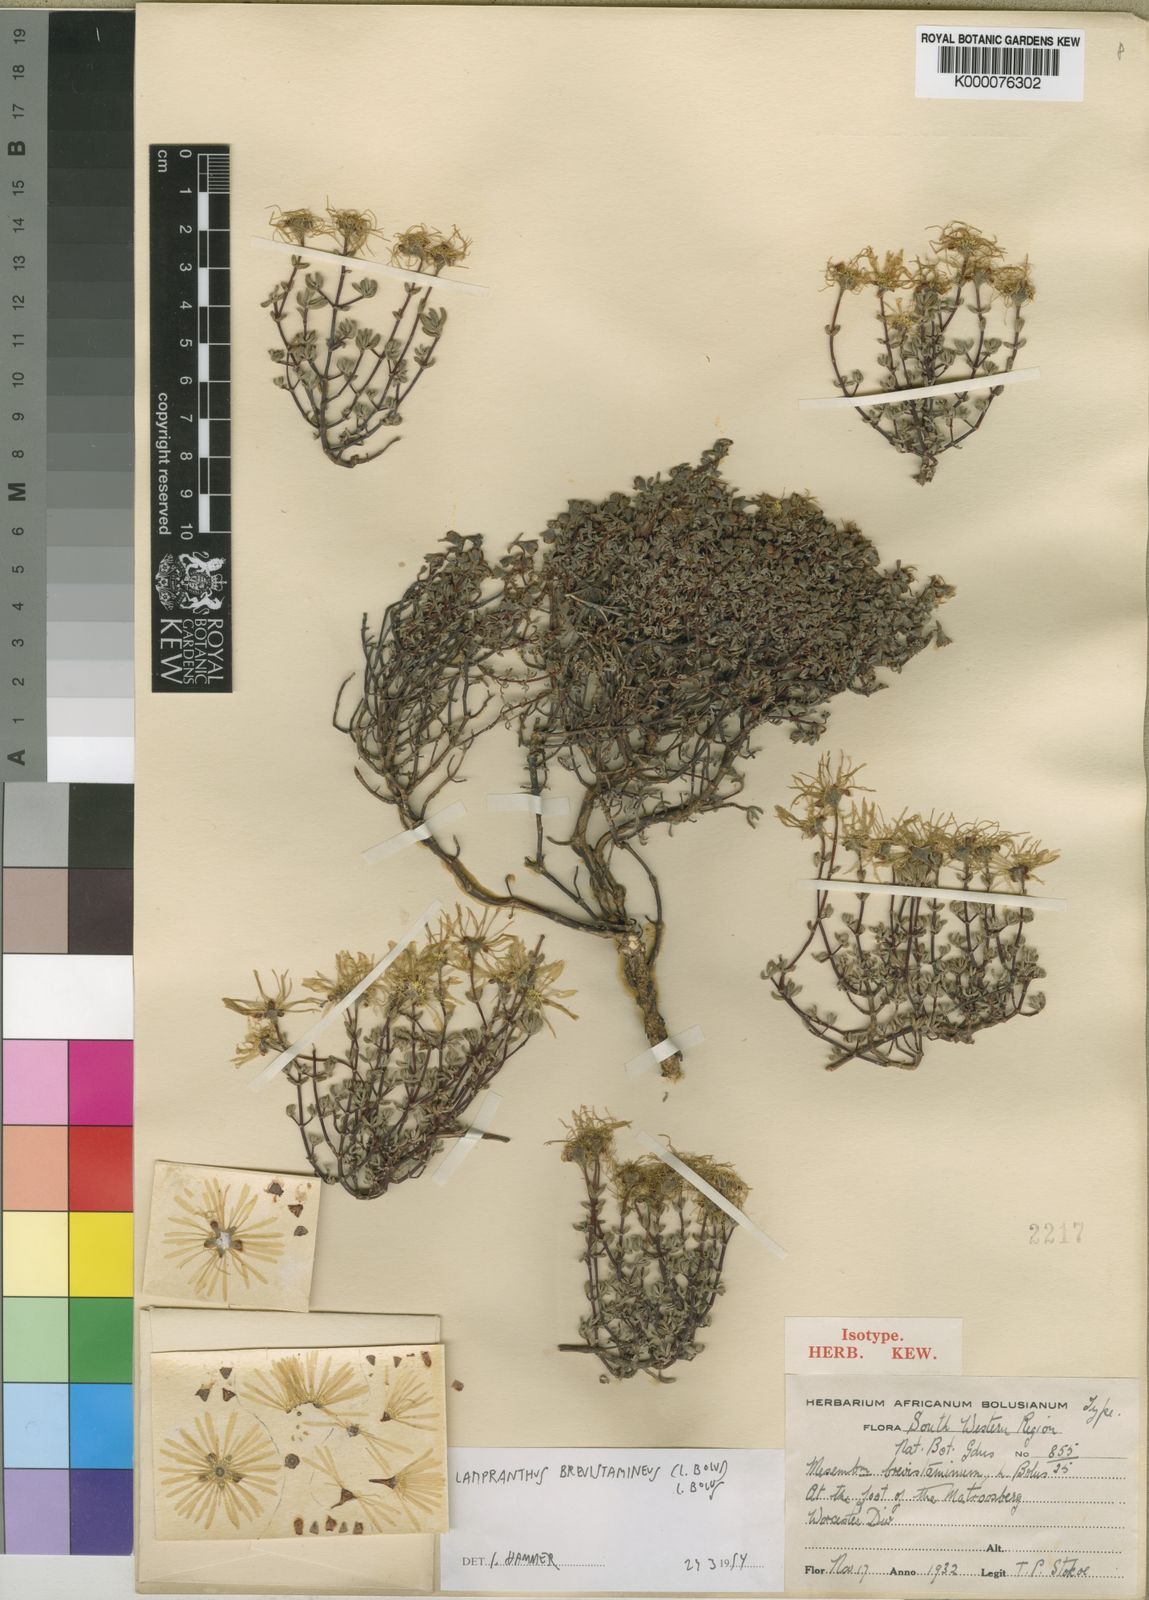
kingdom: Plantae
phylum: Tracheophyta
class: Magnoliopsida
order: Caryophyllales
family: Aizoaceae
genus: Lampranthus
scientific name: Lampranthus brevistaminus
